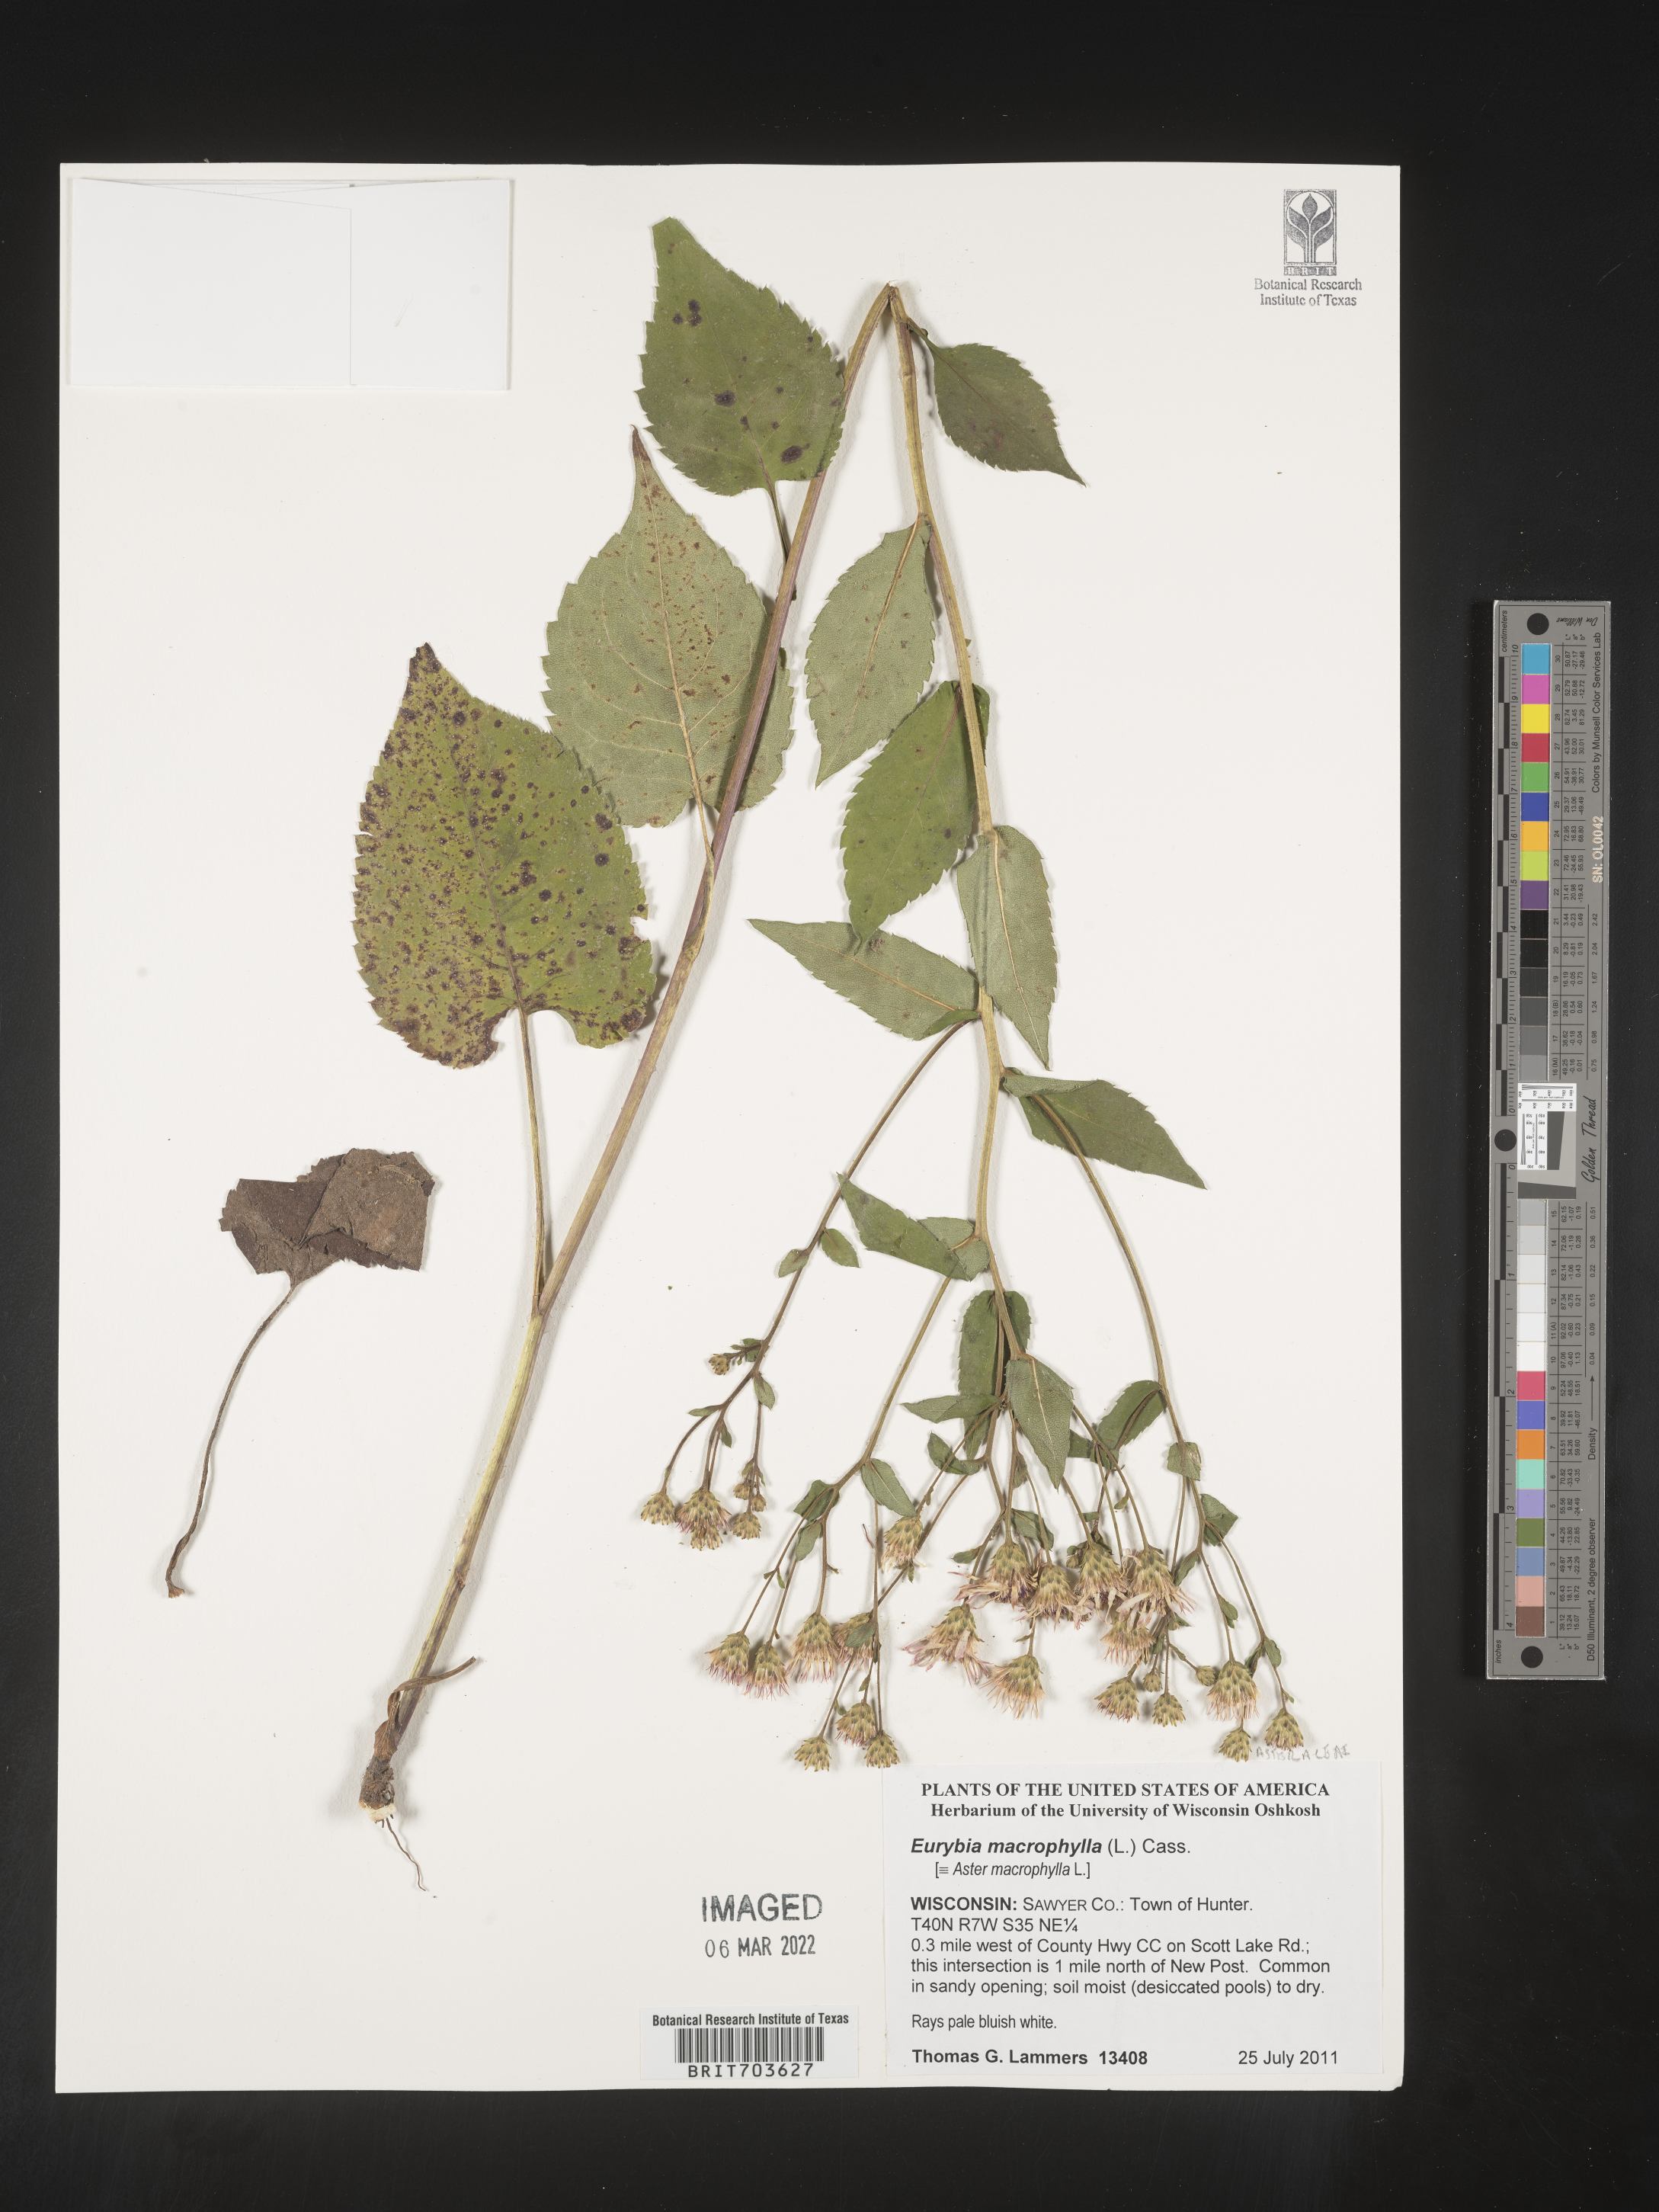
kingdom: Plantae
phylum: Tracheophyta
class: Magnoliopsida
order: Asterales
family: Asteraceae
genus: Eurybia
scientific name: Eurybia macrophylla
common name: Big-leaved aster
